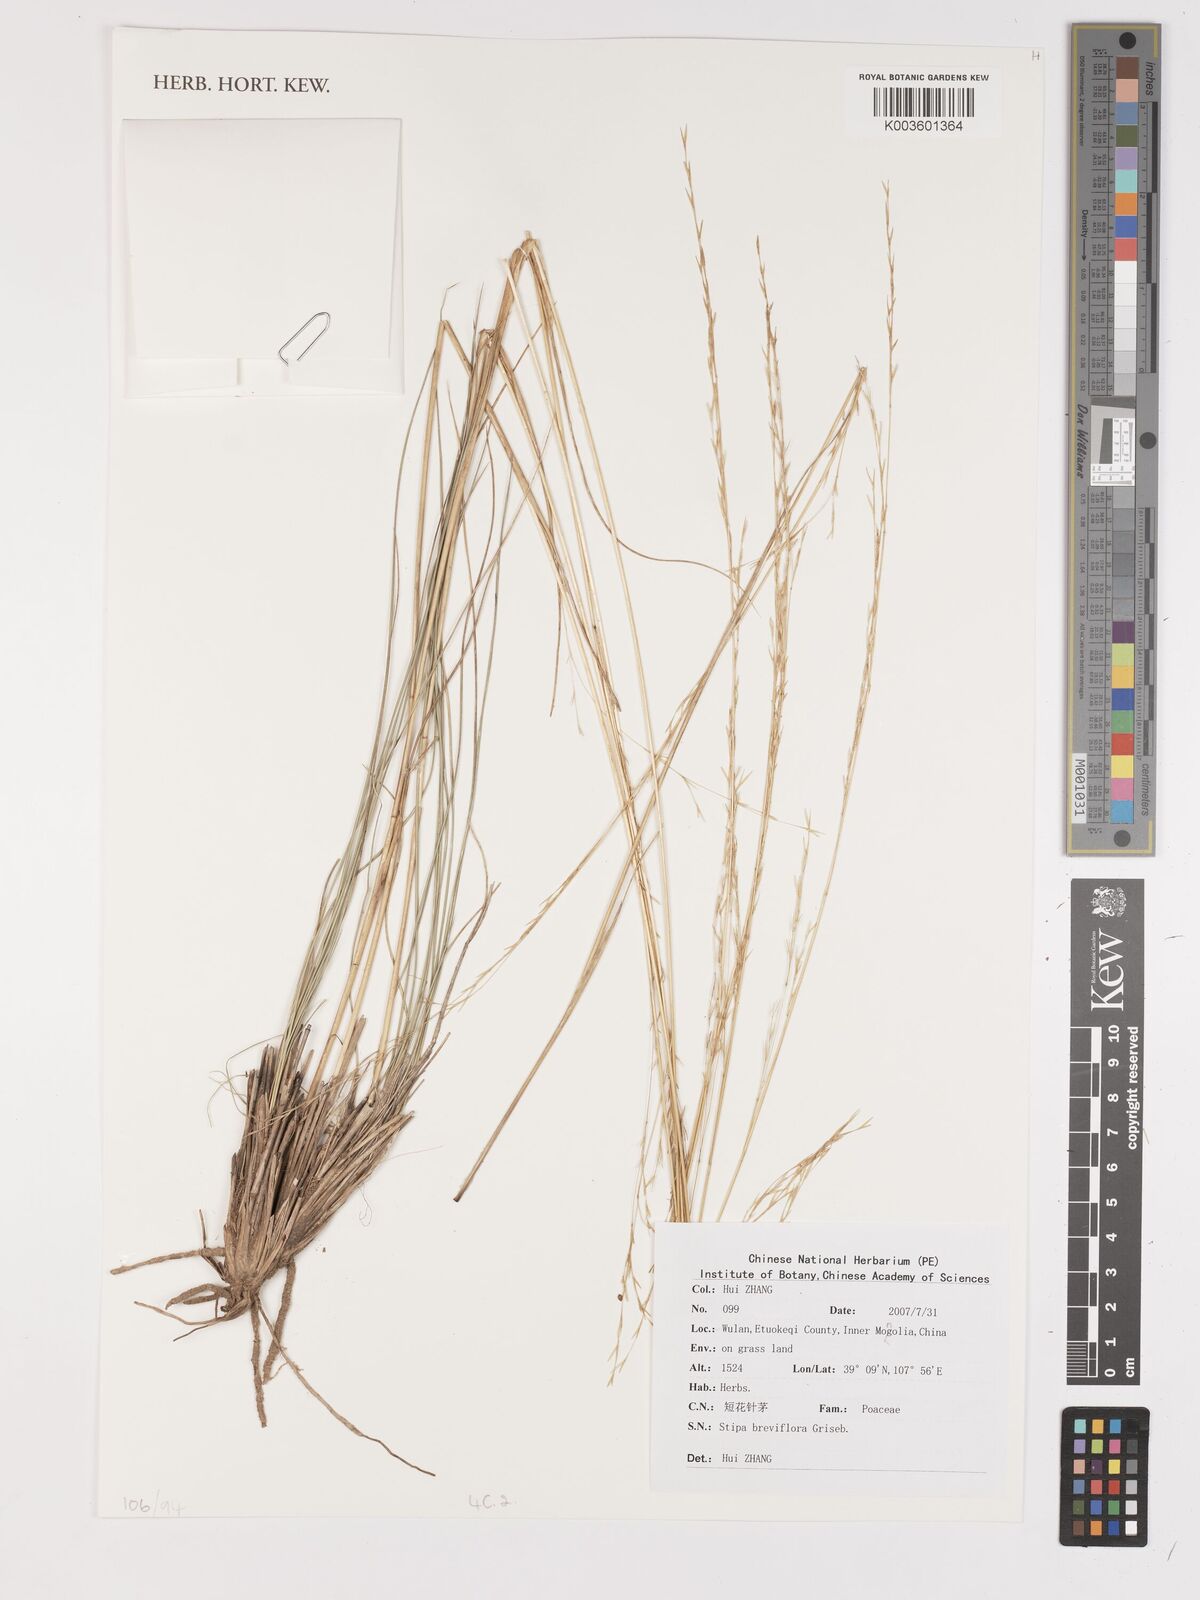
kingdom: Plantae
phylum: Tracheophyta
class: Liliopsida
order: Poales
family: Poaceae
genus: Stipa
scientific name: Stipa breviflora
